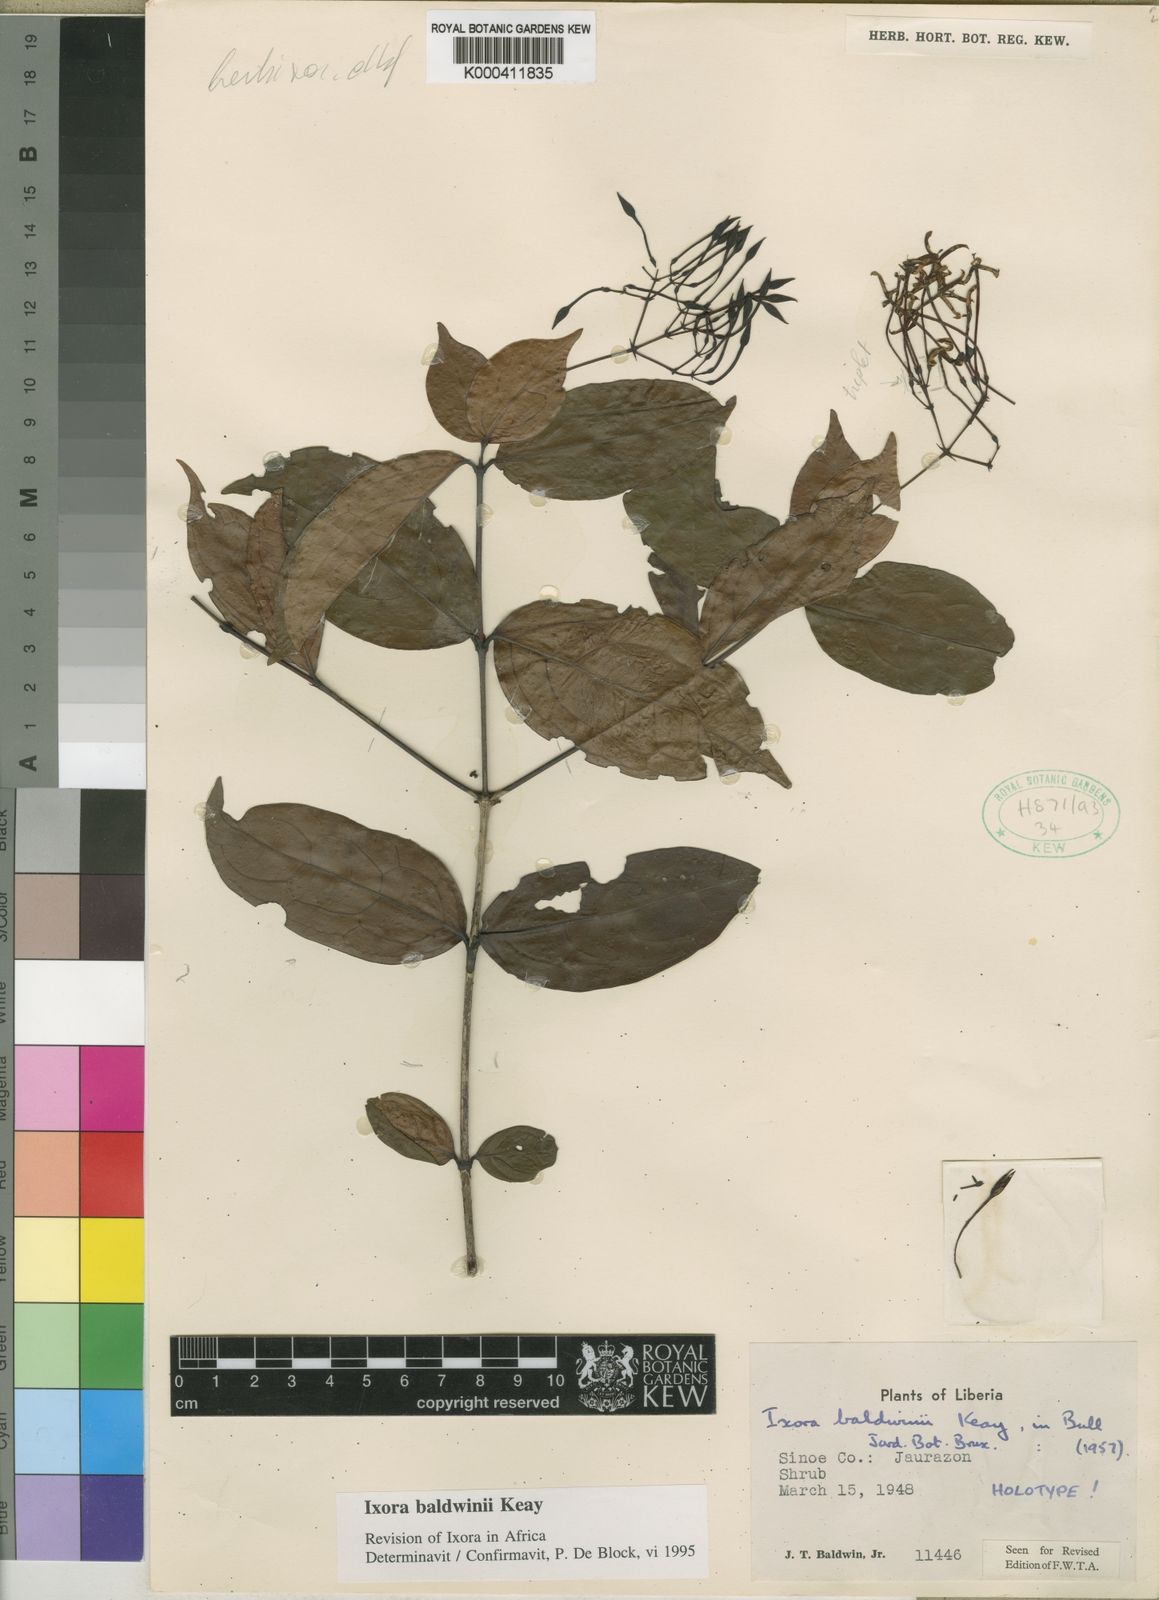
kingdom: Plantae
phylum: Tracheophyta
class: Magnoliopsida
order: Gentianales
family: Rubiaceae
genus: Ixora
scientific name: Ixora baldwinii
